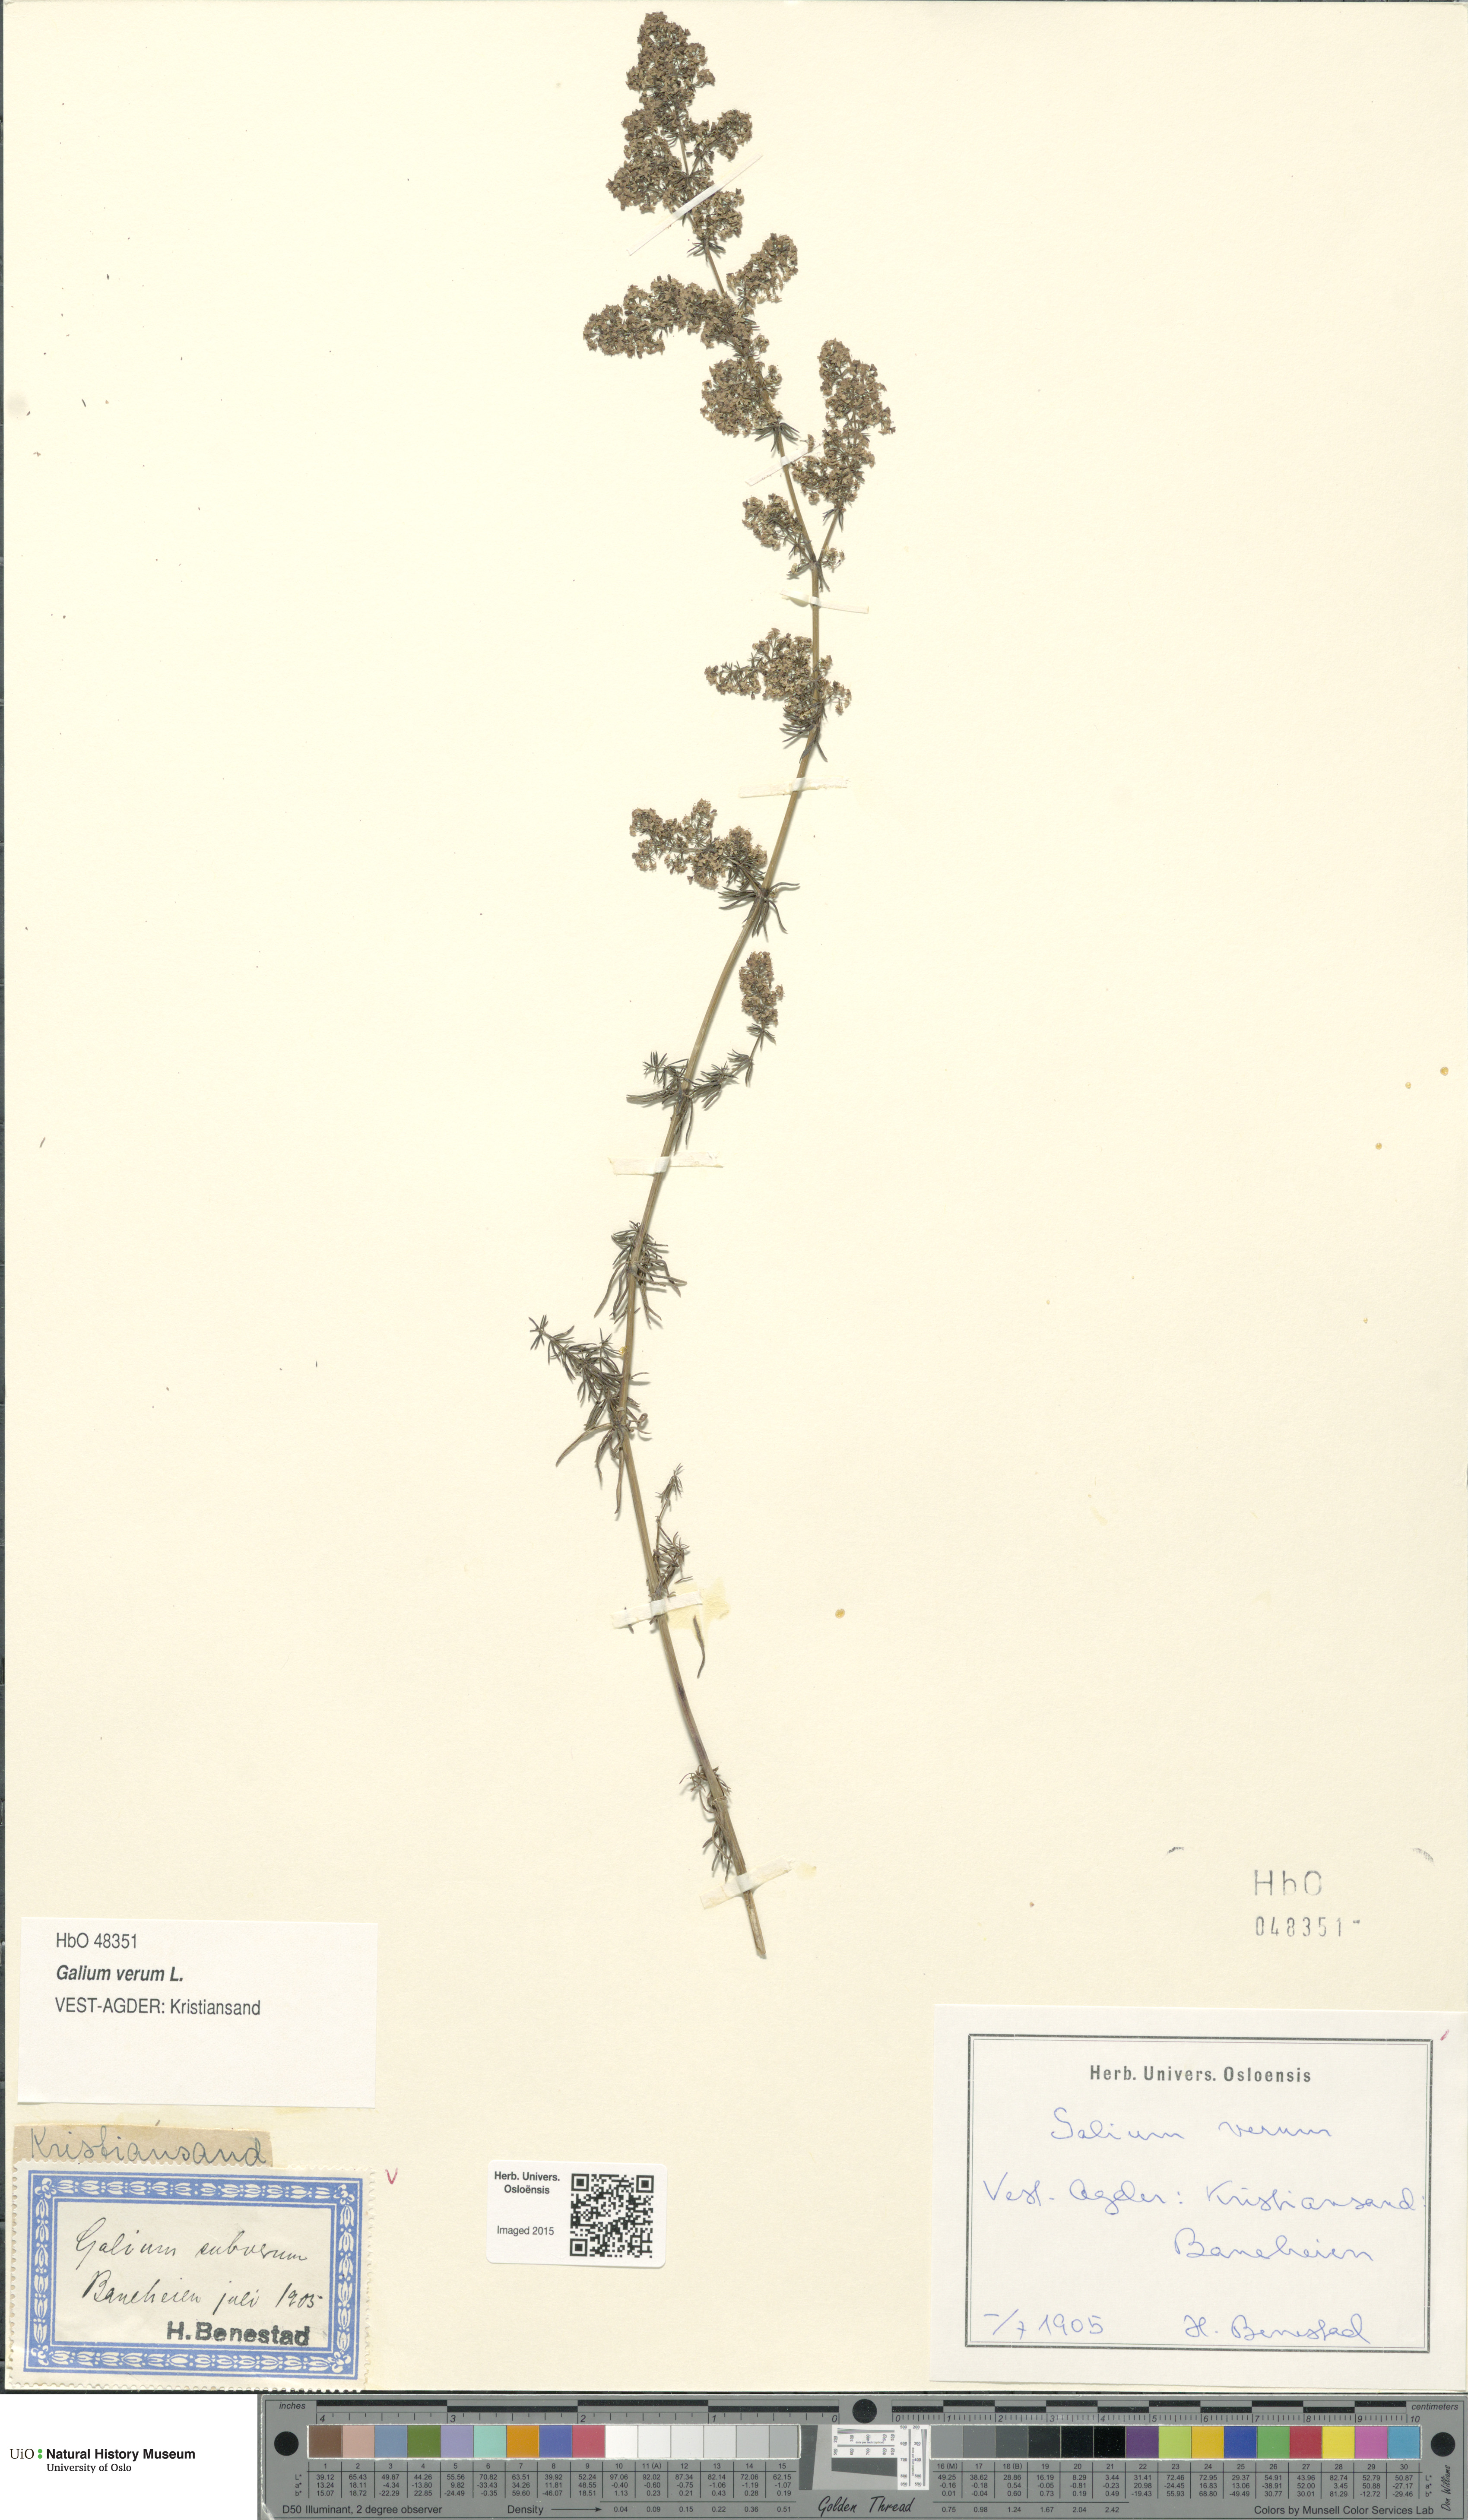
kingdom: Plantae
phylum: Tracheophyta
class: Magnoliopsida
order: Gentianales
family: Rubiaceae
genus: Galium
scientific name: Galium verum
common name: Lady's bedstraw
